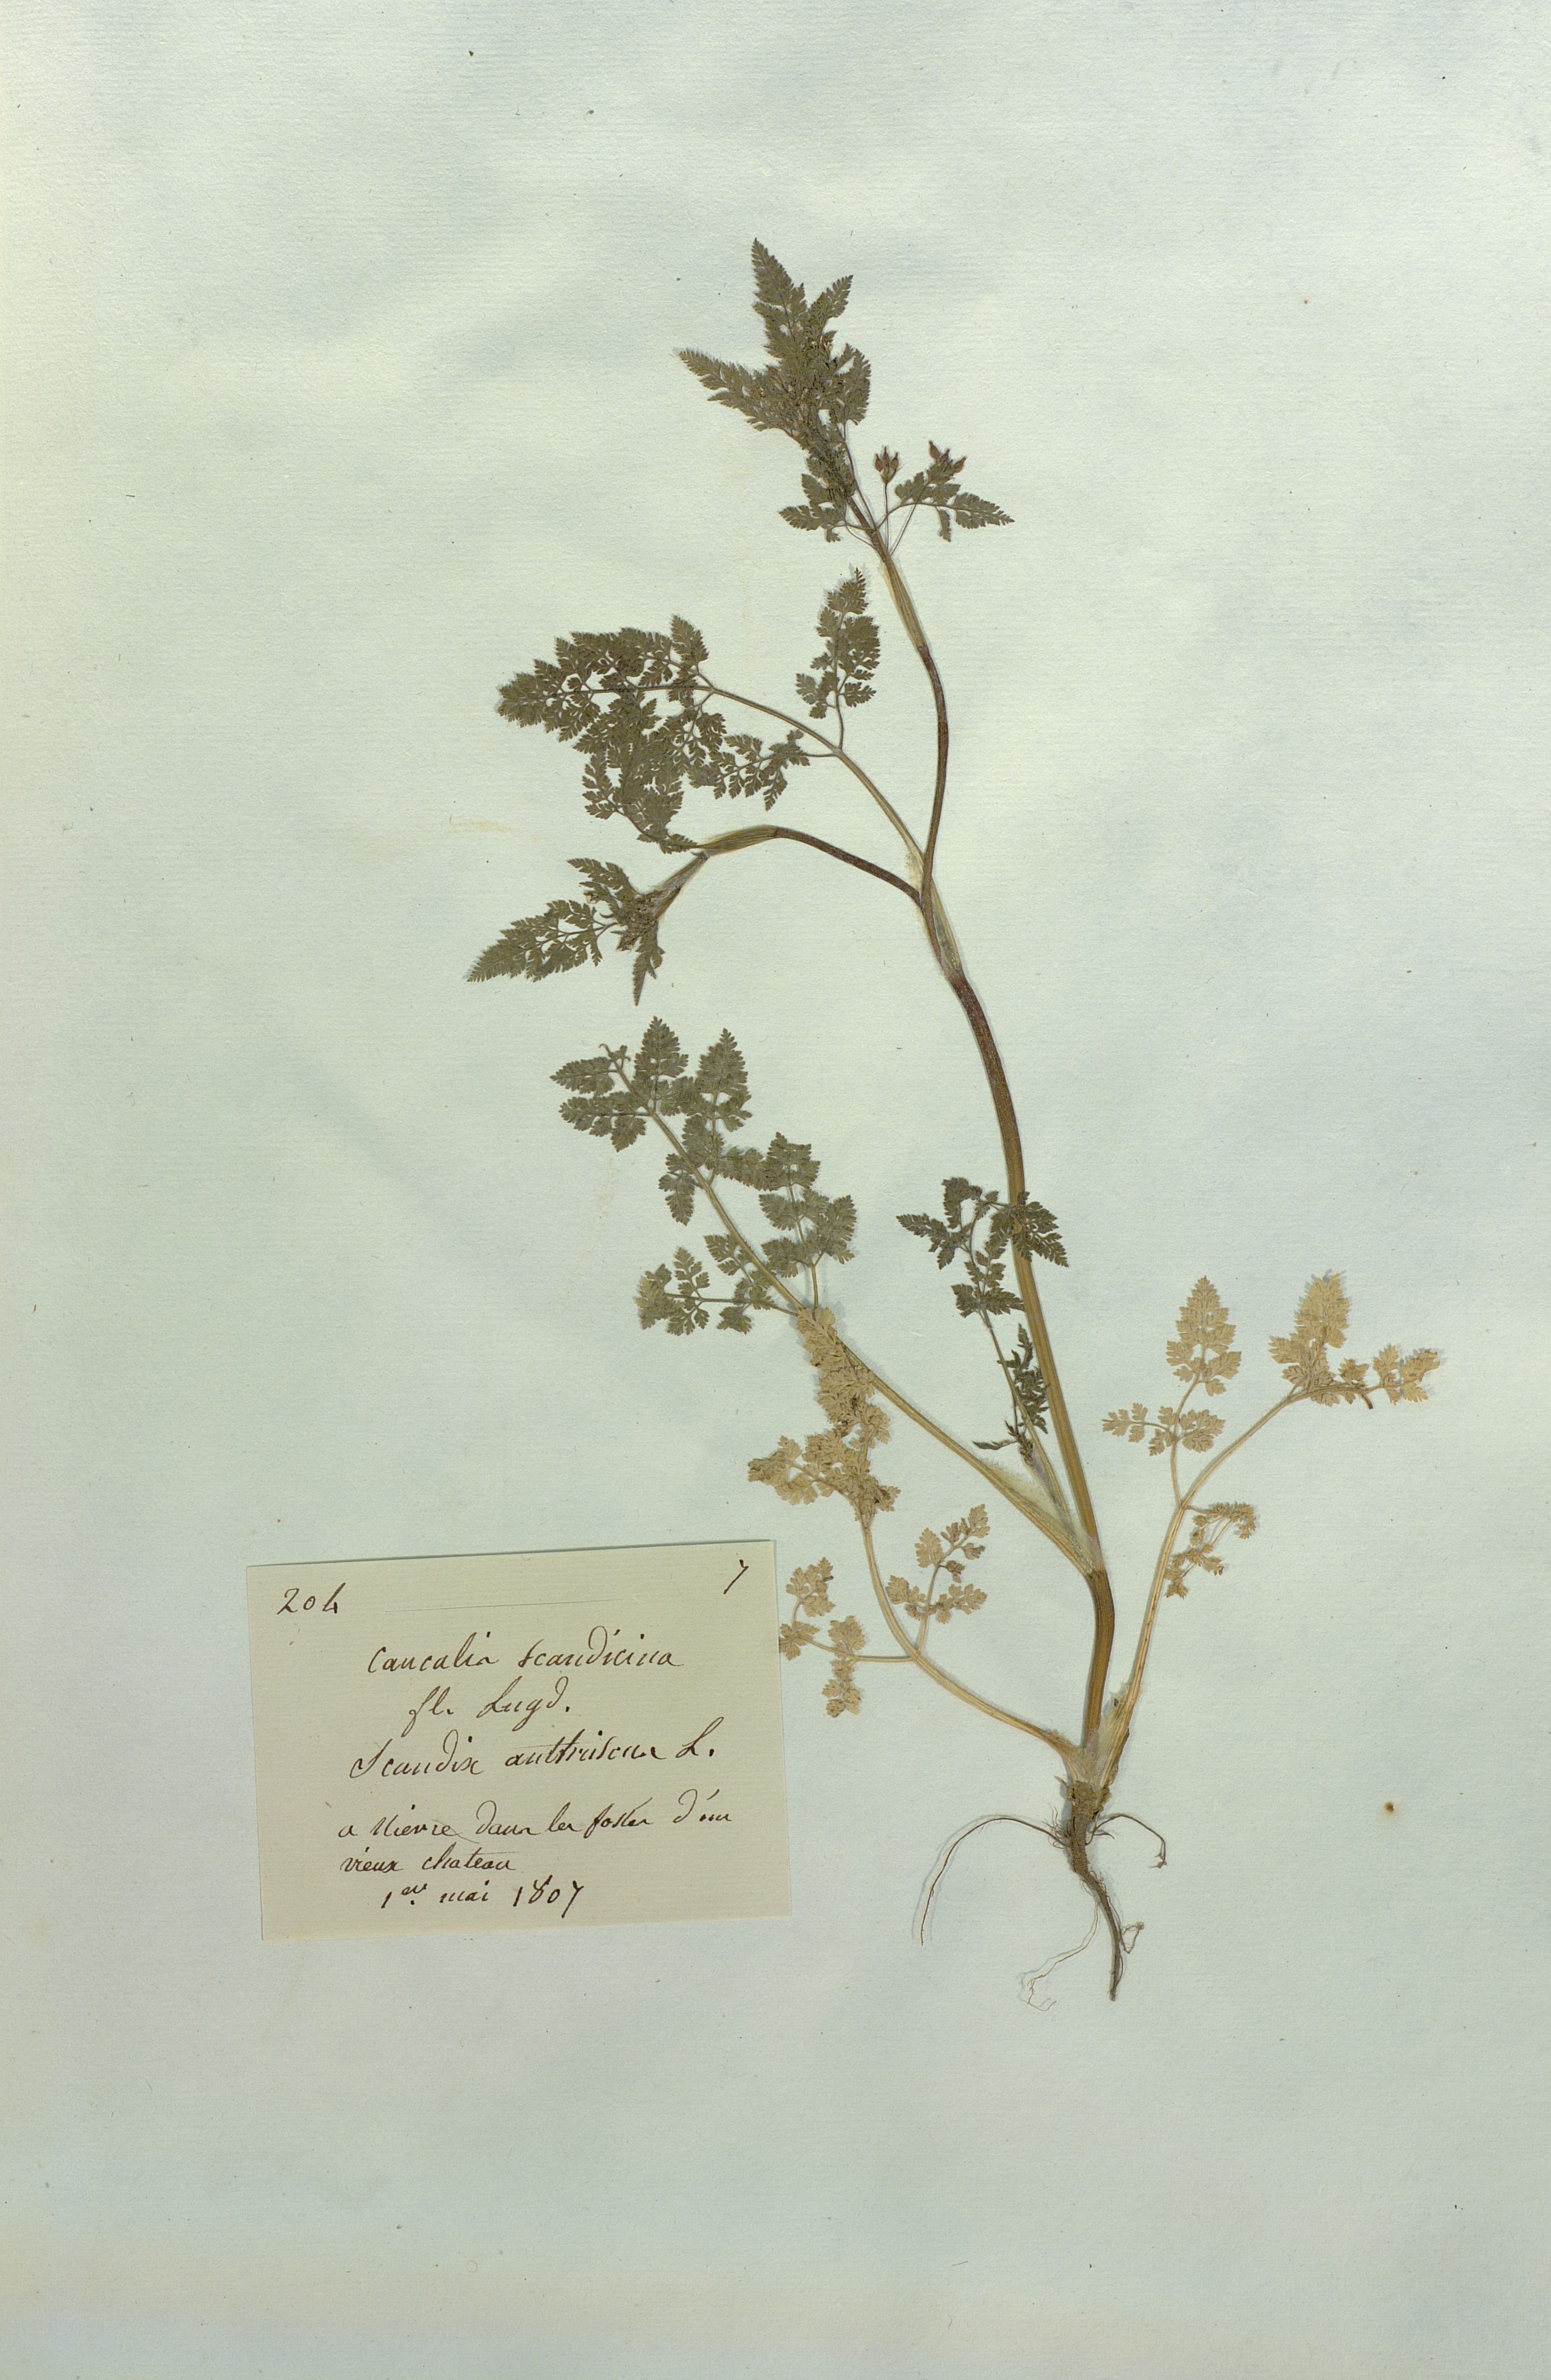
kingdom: Plantae
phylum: Tracheophyta
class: Magnoliopsida
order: Apiales
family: Apiaceae
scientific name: Apiaceae
